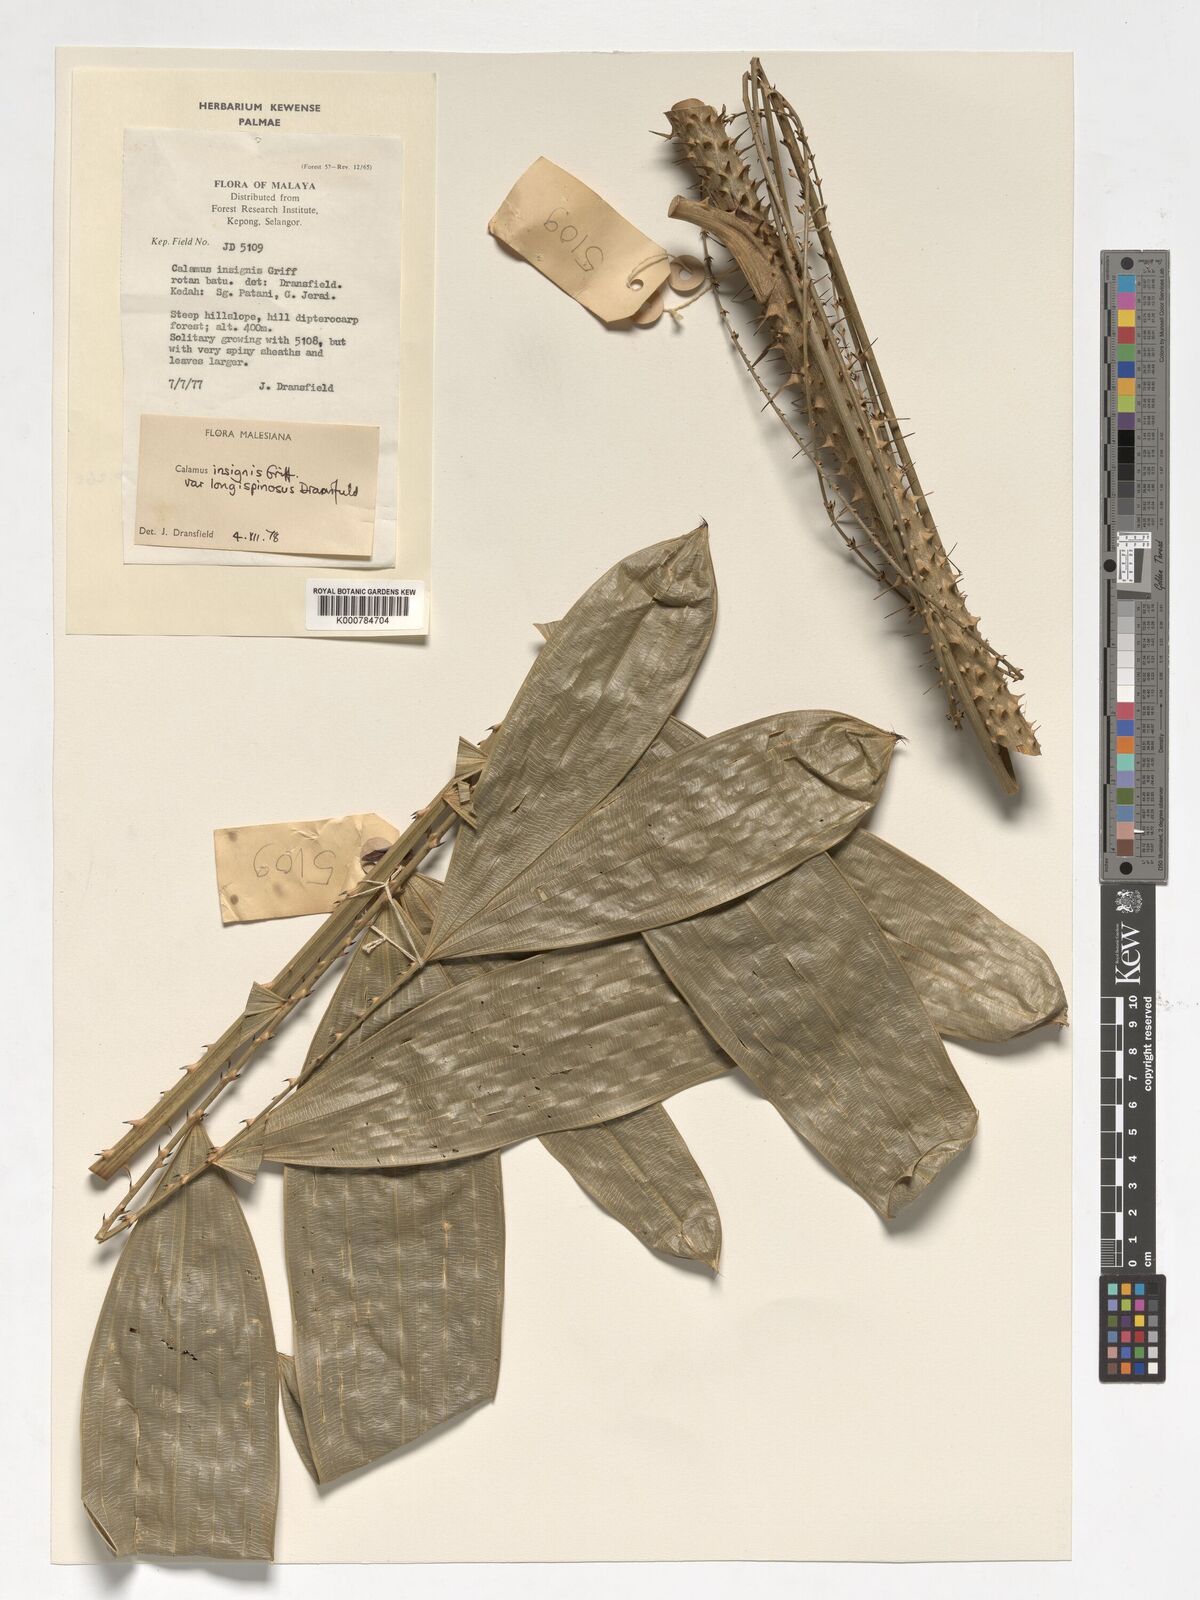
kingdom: Plantae
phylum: Tracheophyta
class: Liliopsida
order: Arecales
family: Arecaceae
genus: Calamus
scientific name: Calamus longiusculus
